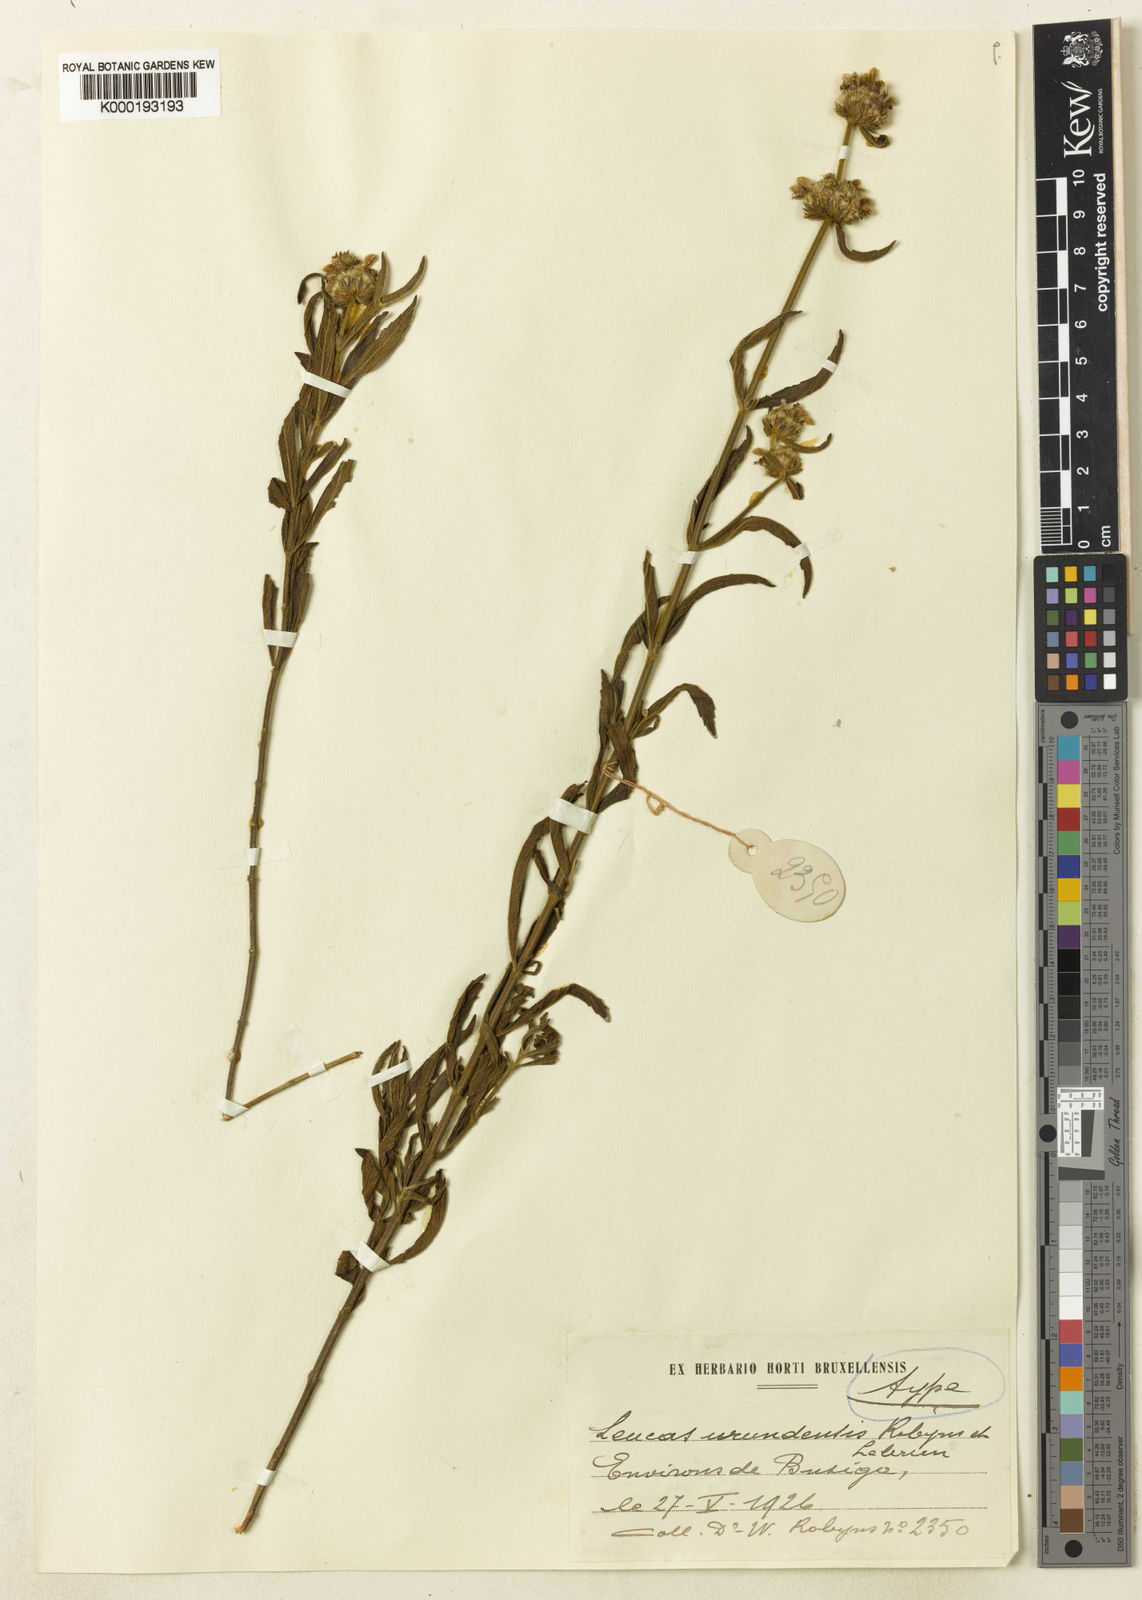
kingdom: Plantae
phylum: Tracheophyta
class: Magnoliopsida
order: Lamiales
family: Lamiaceae
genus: Leucas
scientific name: Leucas
